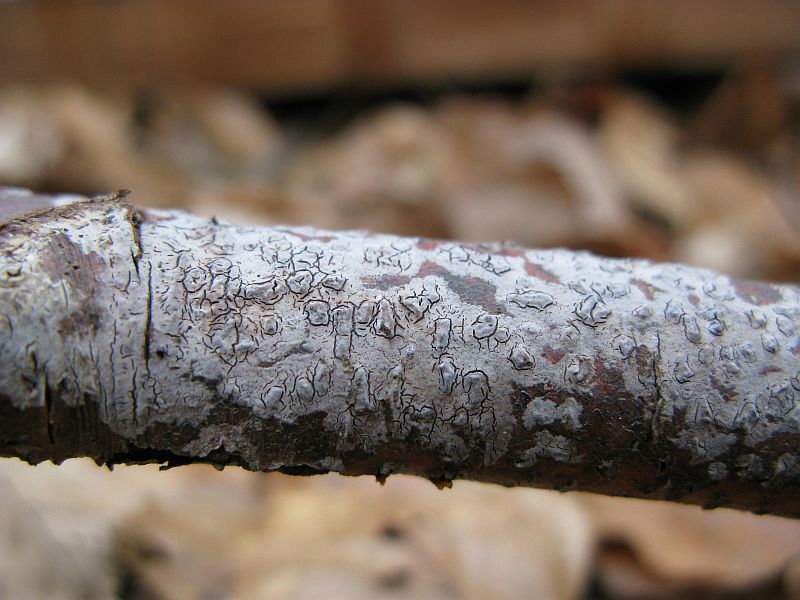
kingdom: Fungi
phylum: Basidiomycota
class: Agaricomycetes
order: Russulales
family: Peniophoraceae
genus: Peniophora
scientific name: Peniophora cinerea
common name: grå voksskind
